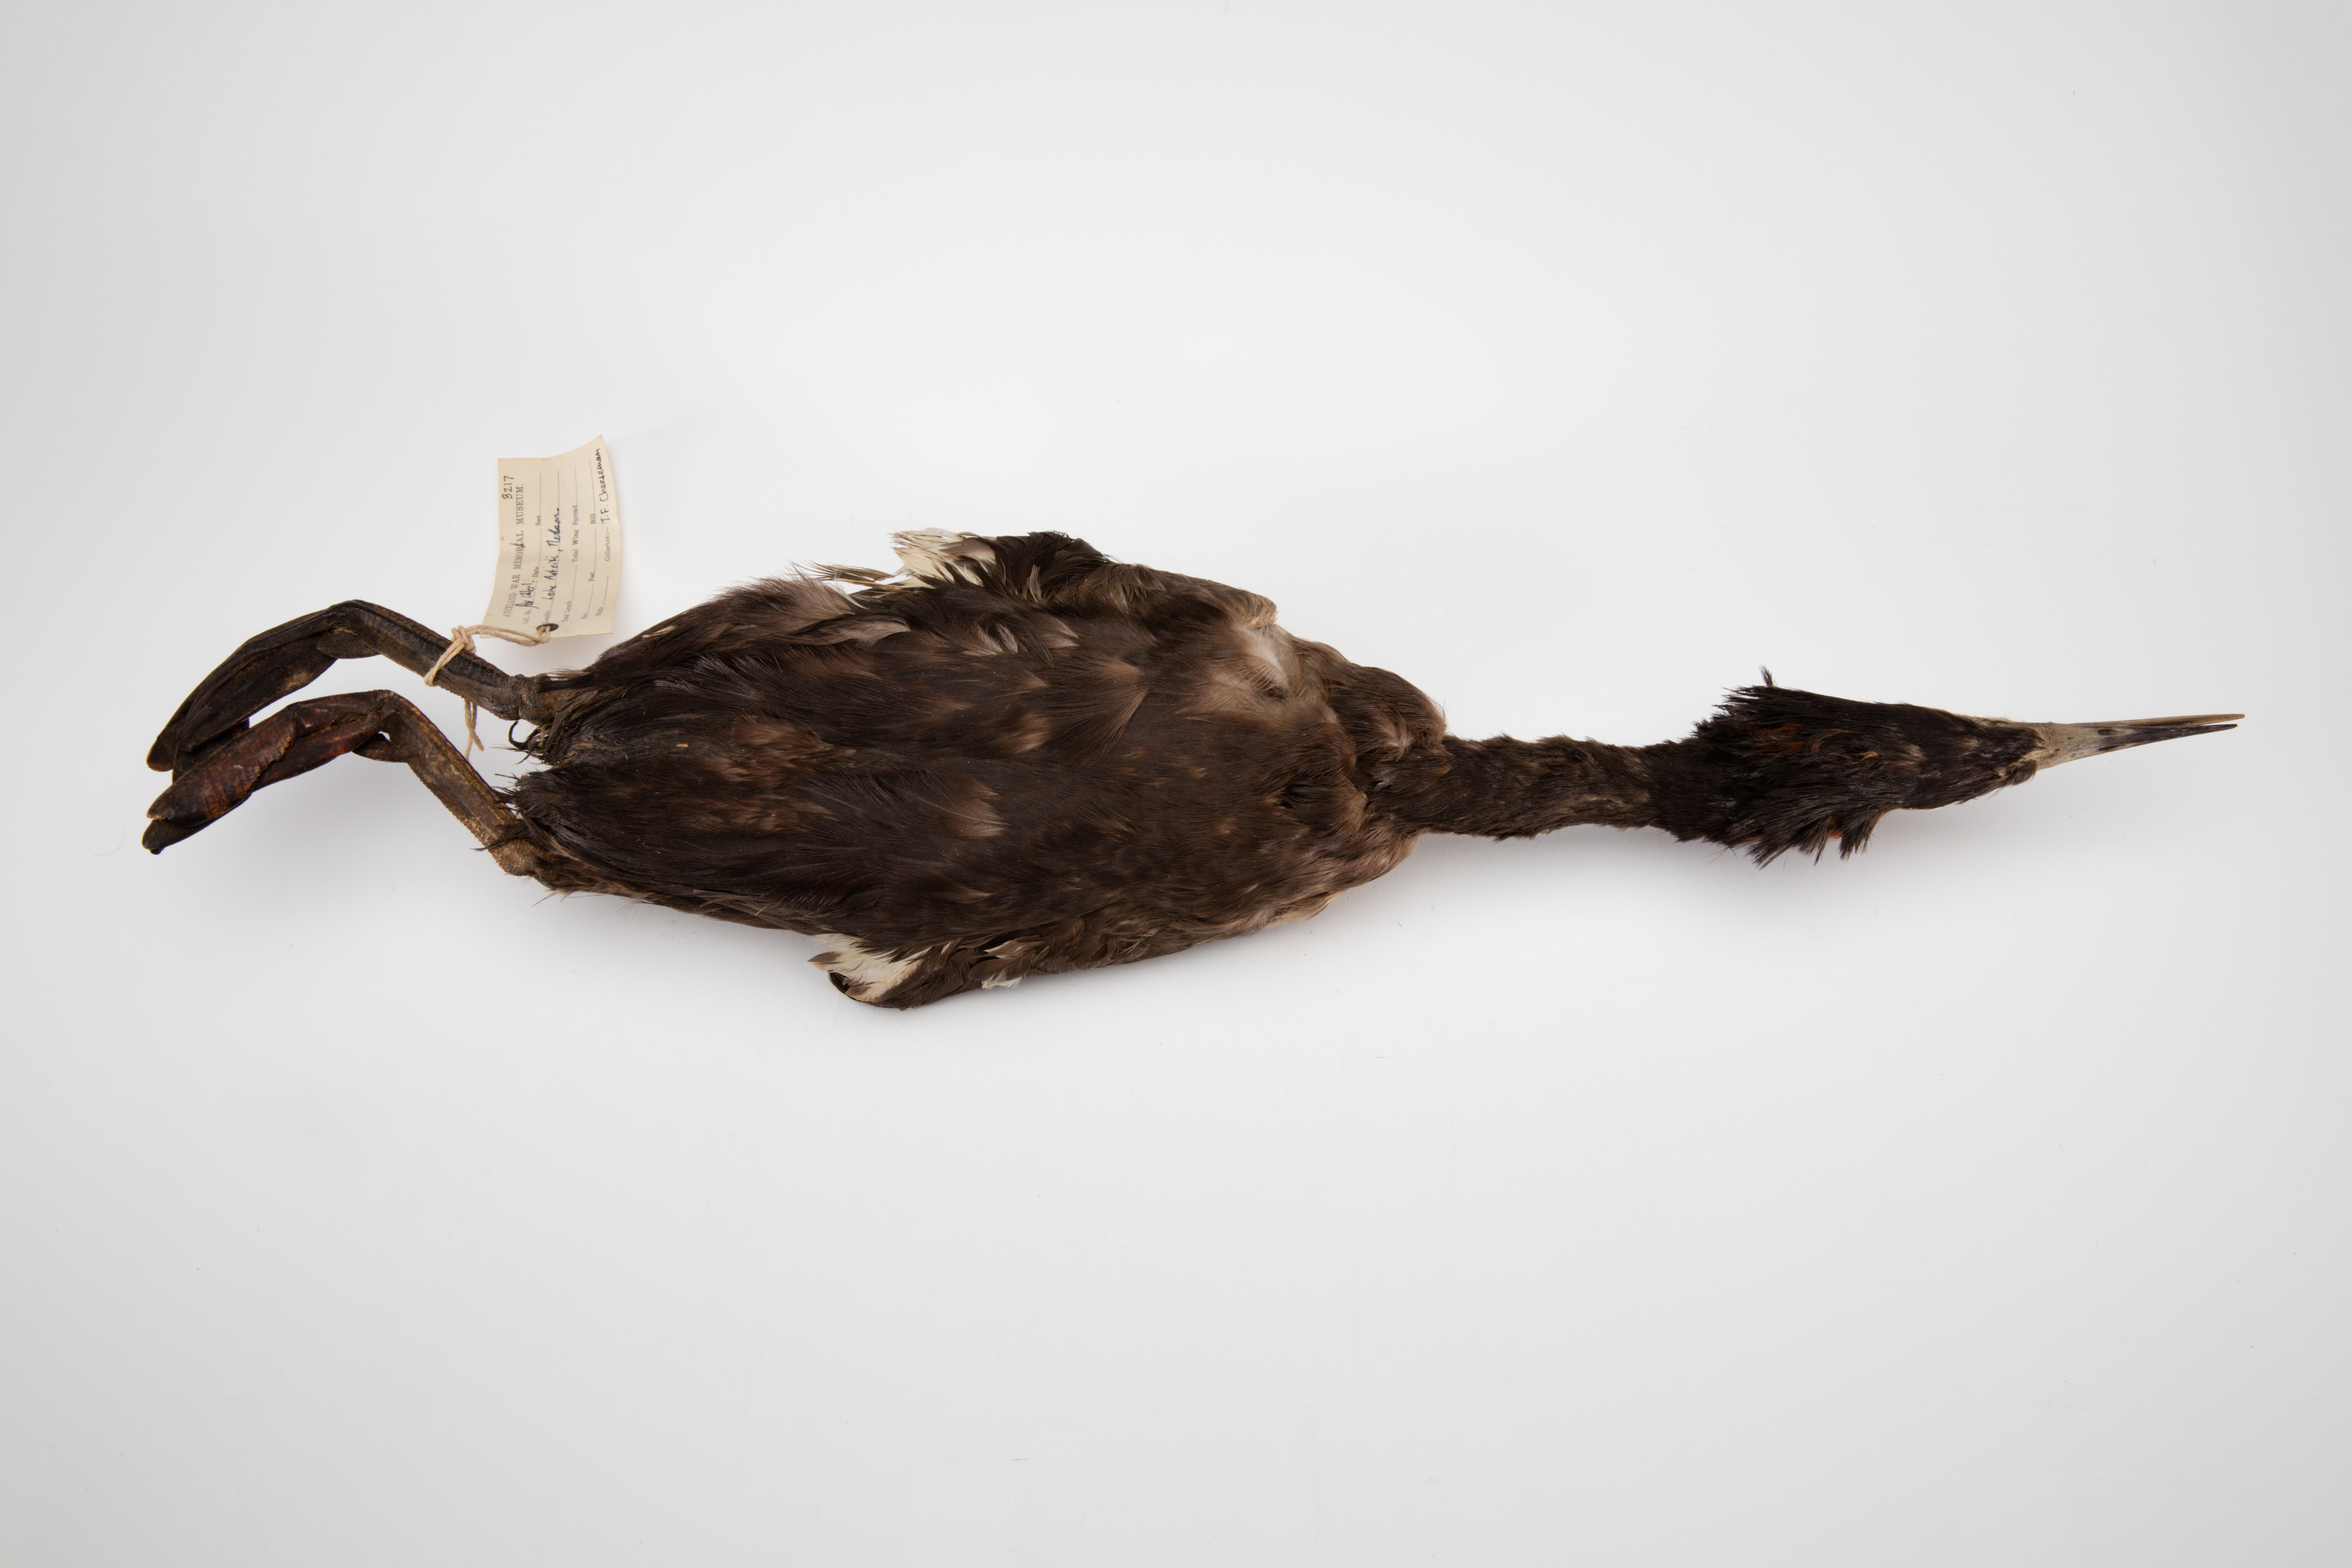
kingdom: Animalia
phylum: Chordata
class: Aves
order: Podicipediformes
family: Podicipedidae
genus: Podiceps
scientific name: Podiceps cristatus
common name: Great crested grebe
